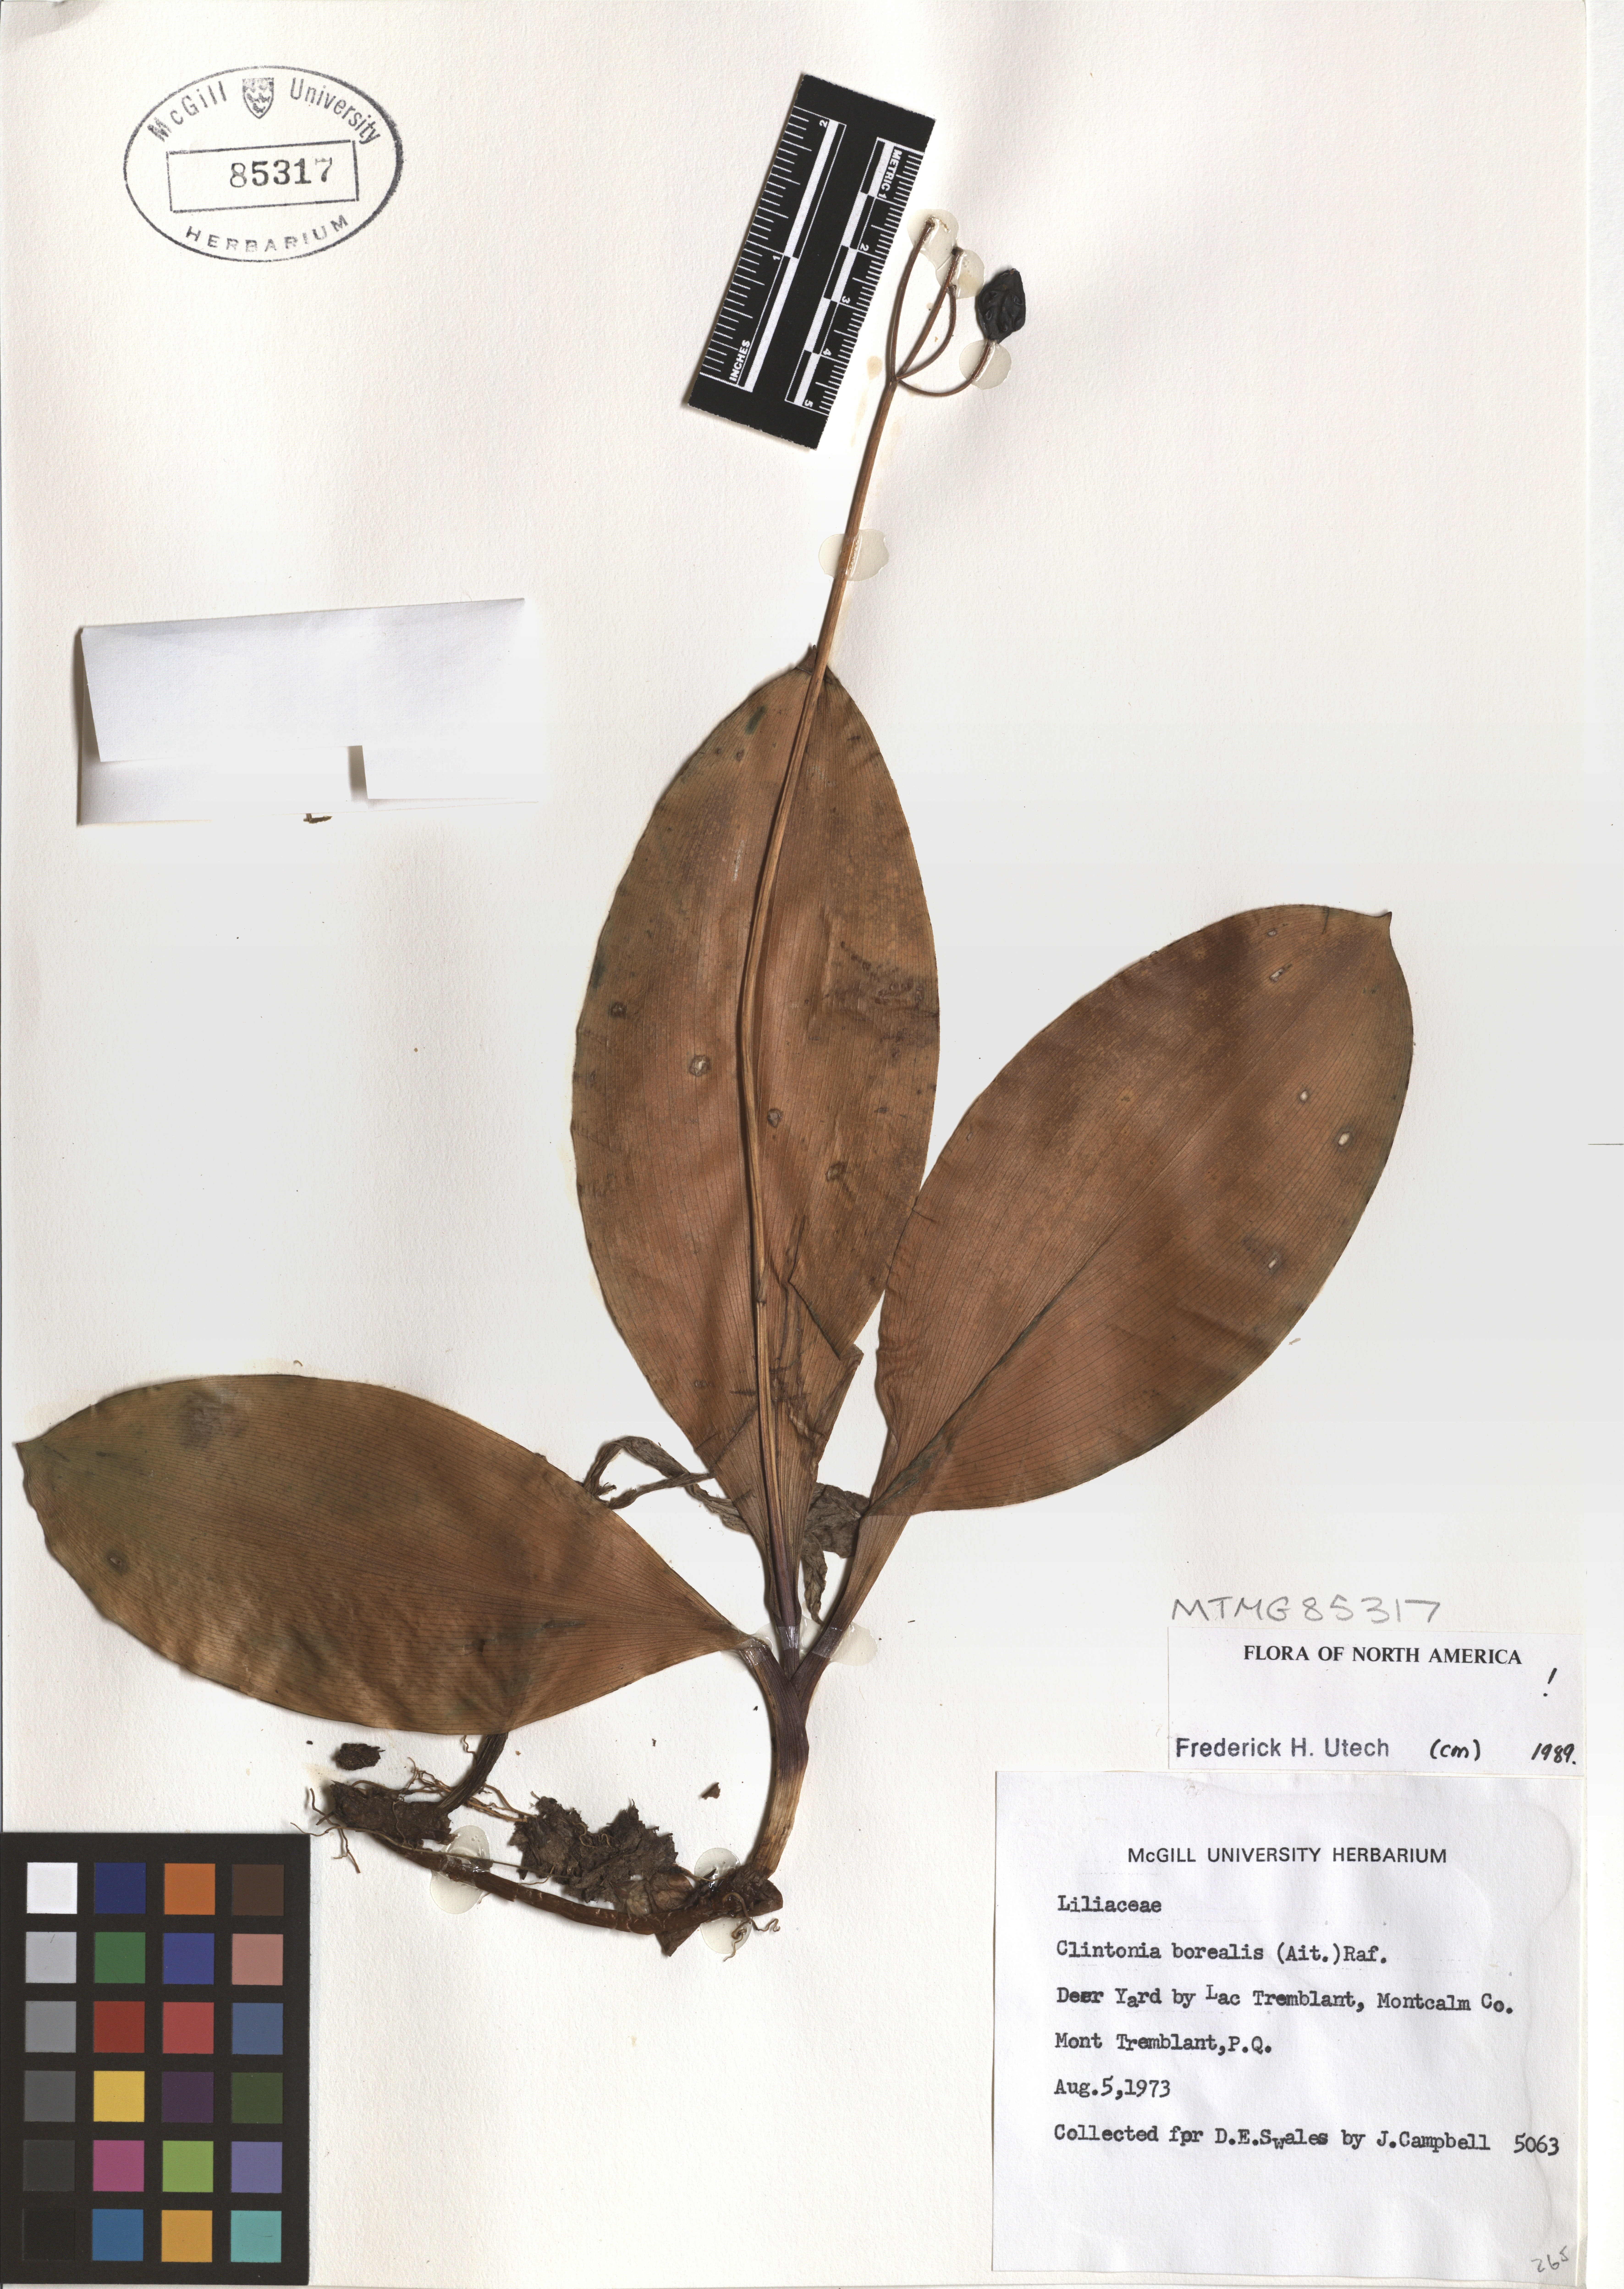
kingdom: Plantae
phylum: Tracheophyta
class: Liliopsida
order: Liliales
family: Liliaceae
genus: Clintonia
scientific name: Clintonia borealis
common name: Yellow clintonia
